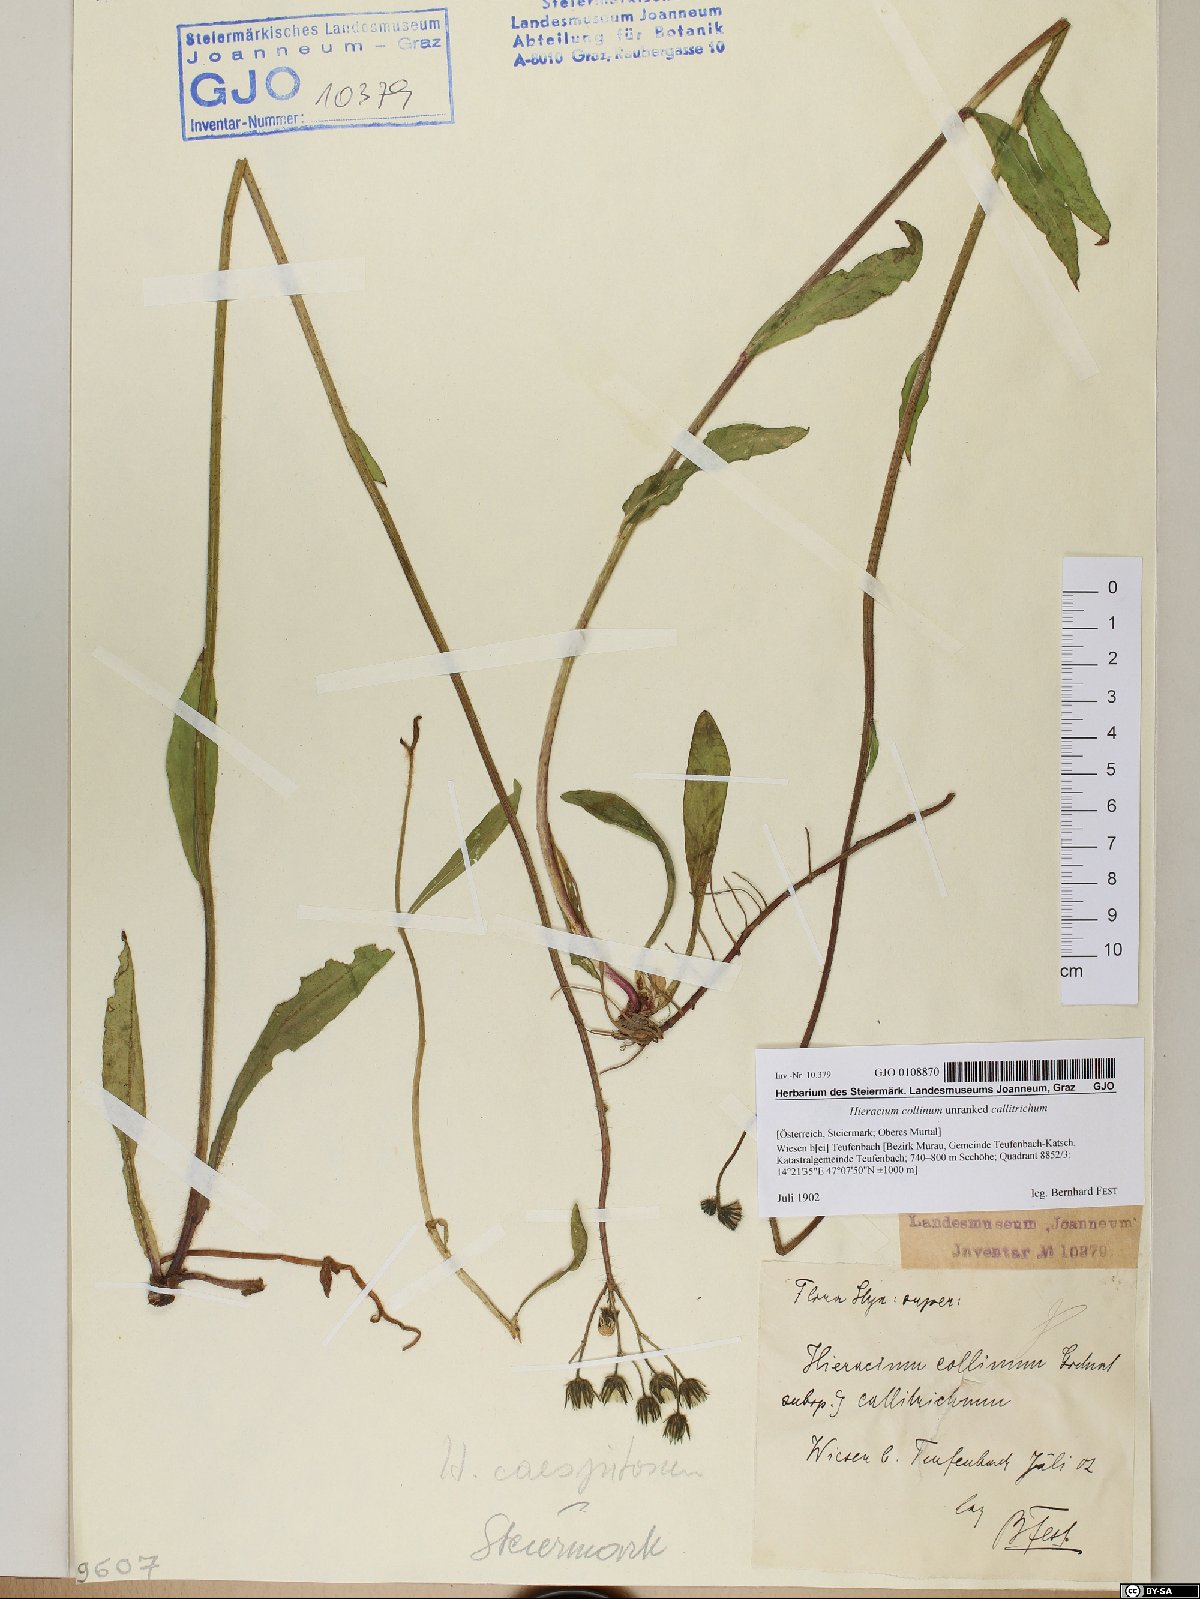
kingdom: Plantae
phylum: Tracheophyta
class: Magnoliopsida
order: Asterales
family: Asteraceae
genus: Hieracium
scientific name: Hieracium collinum
